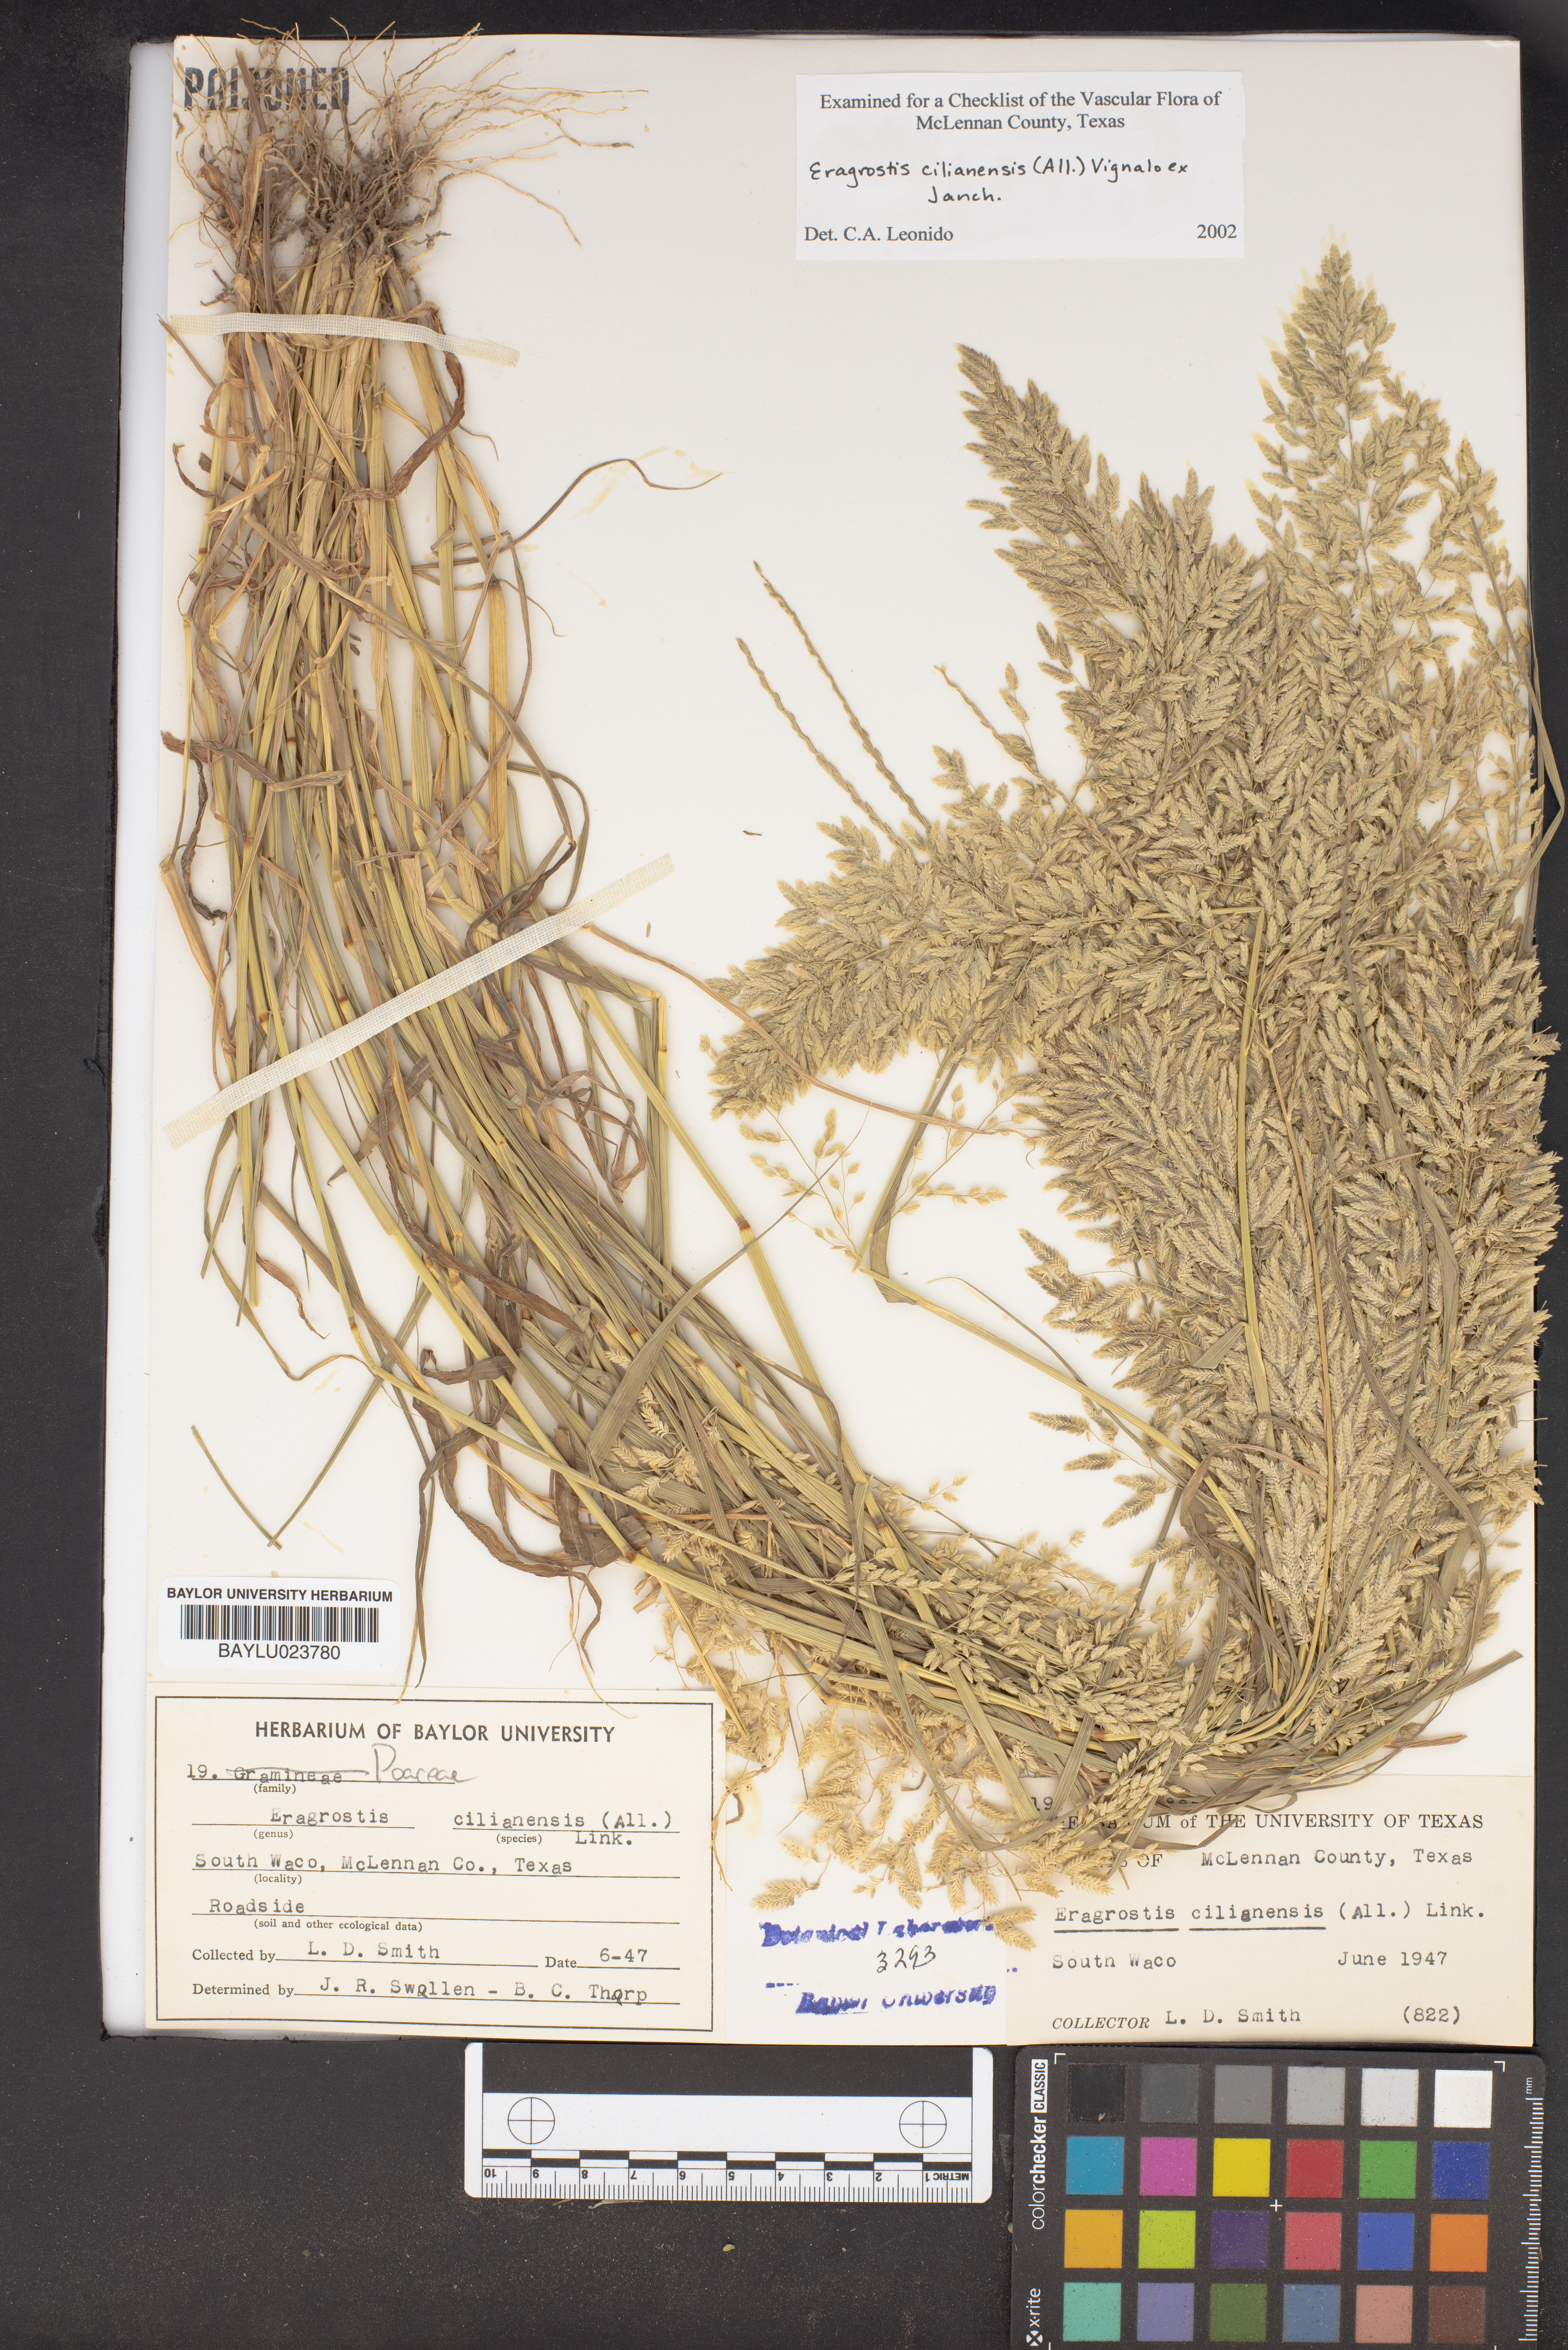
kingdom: Plantae
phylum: Tracheophyta
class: Liliopsida
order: Poales
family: Poaceae
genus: Eragrostis
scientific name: Eragrostis cilianensis
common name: Stinkgrass
